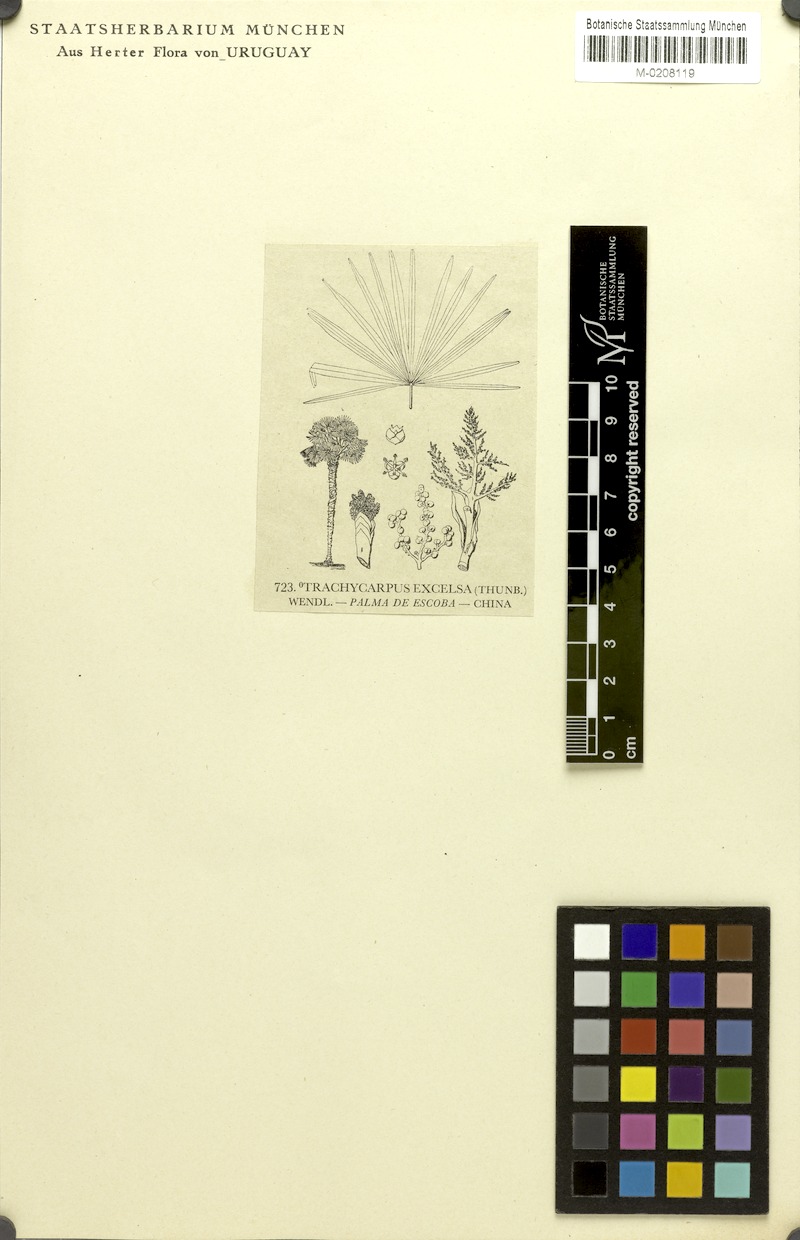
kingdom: Plantae
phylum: Tracheophyta
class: Liliopsida
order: Arecales
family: Arecaceae
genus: Trachycarpus
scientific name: Trachycarpus fortunei
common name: Chusan palm
